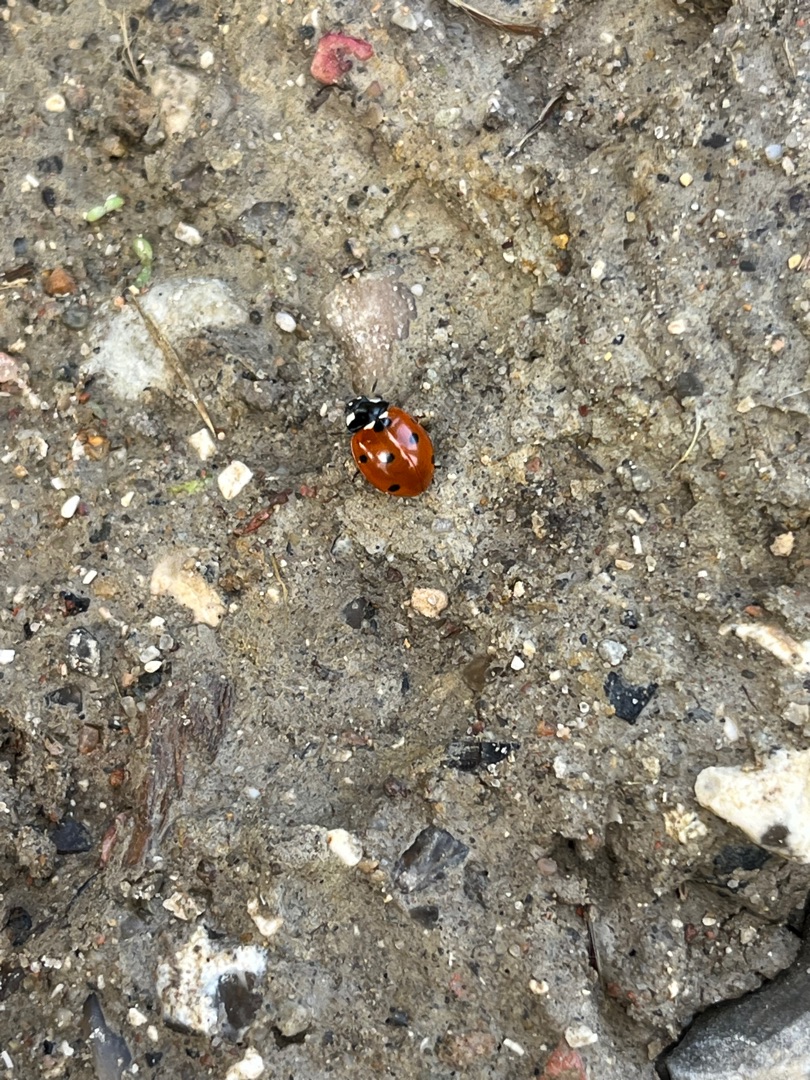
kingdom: Animalia
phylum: Arthropoda
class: Insecta
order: Coleoptera
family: Coccinellidae
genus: Coccinella
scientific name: Coccinella septempunctata
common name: Syvplettet mariehøne
